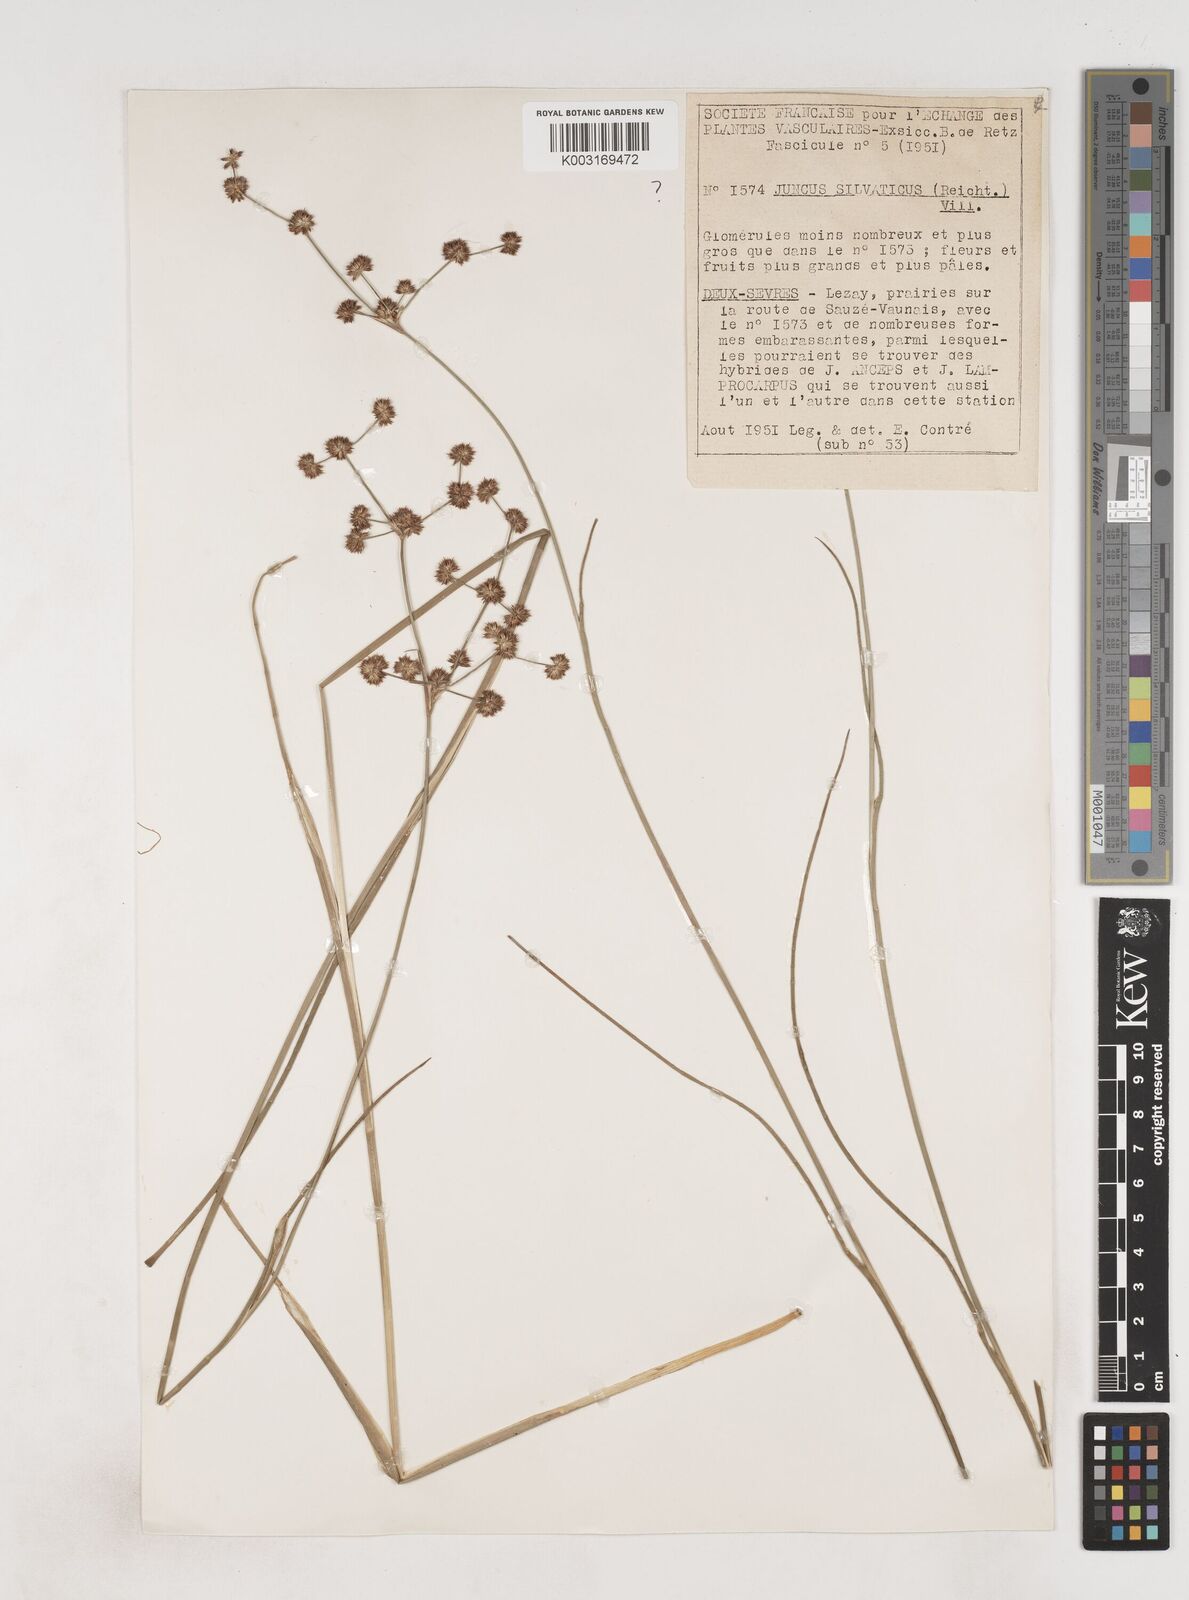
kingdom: Plantae
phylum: Tracheophyta
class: Liliopsida
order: Poales
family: Juncaceae
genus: Juncus
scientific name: Juncus acutiflorus
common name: Sharp-flowered rush
